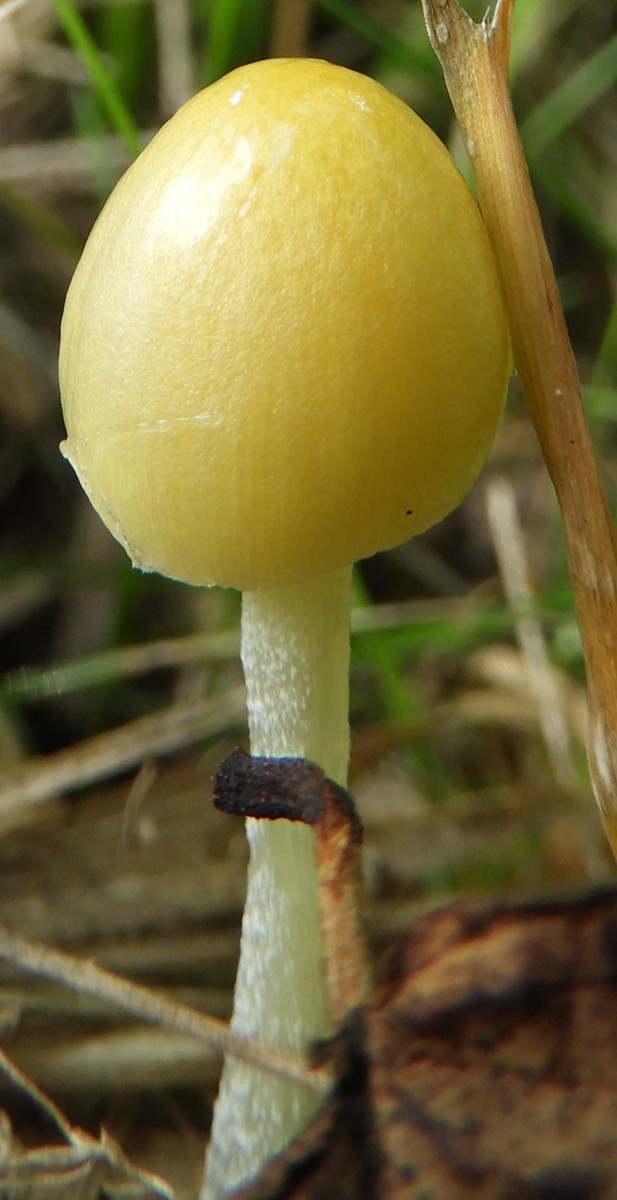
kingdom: Fungi
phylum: Basidiomycota
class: Agaricomycetes
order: Agaricales
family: Bolbitiaceae
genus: Bolbitius
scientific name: Bolbitius titubans
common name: almindelig gulhat
